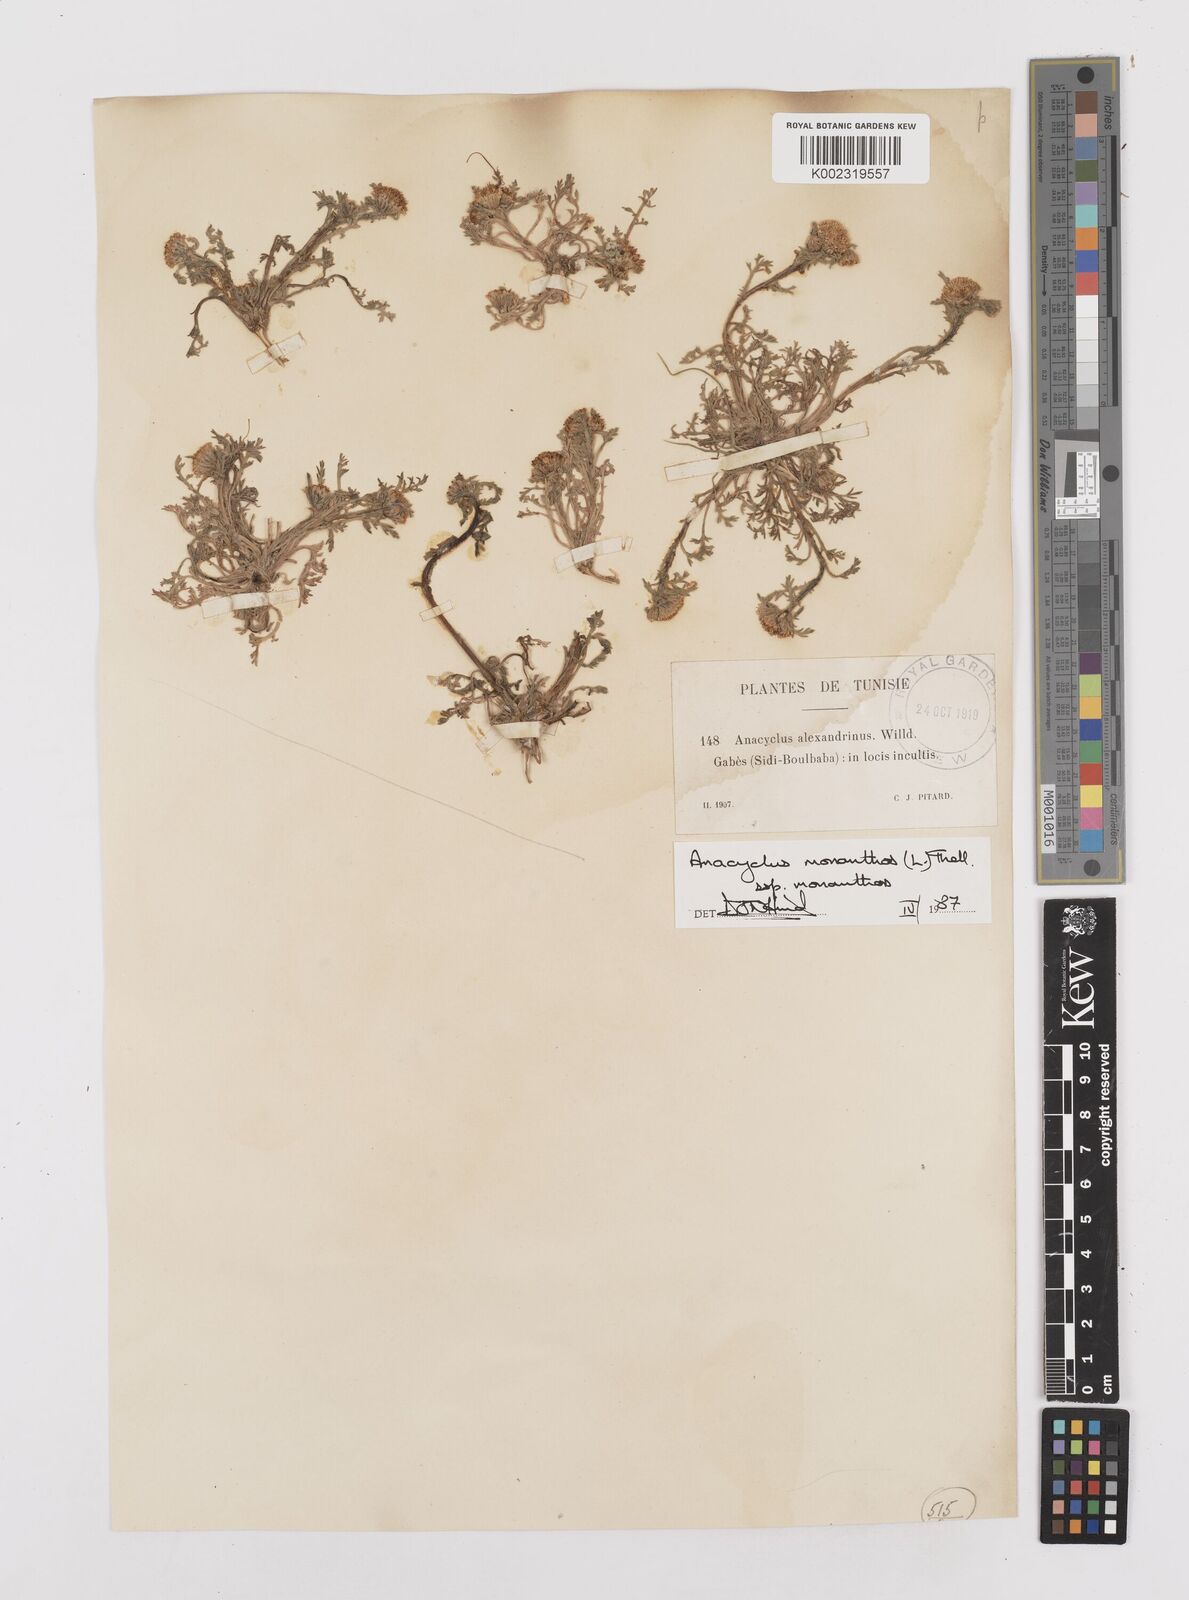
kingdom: Plantae
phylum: Tracheophyta
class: Magnoliopsida
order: Asterales
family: Asteraceae
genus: Anacyclus
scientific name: Anacyclus monanthos
